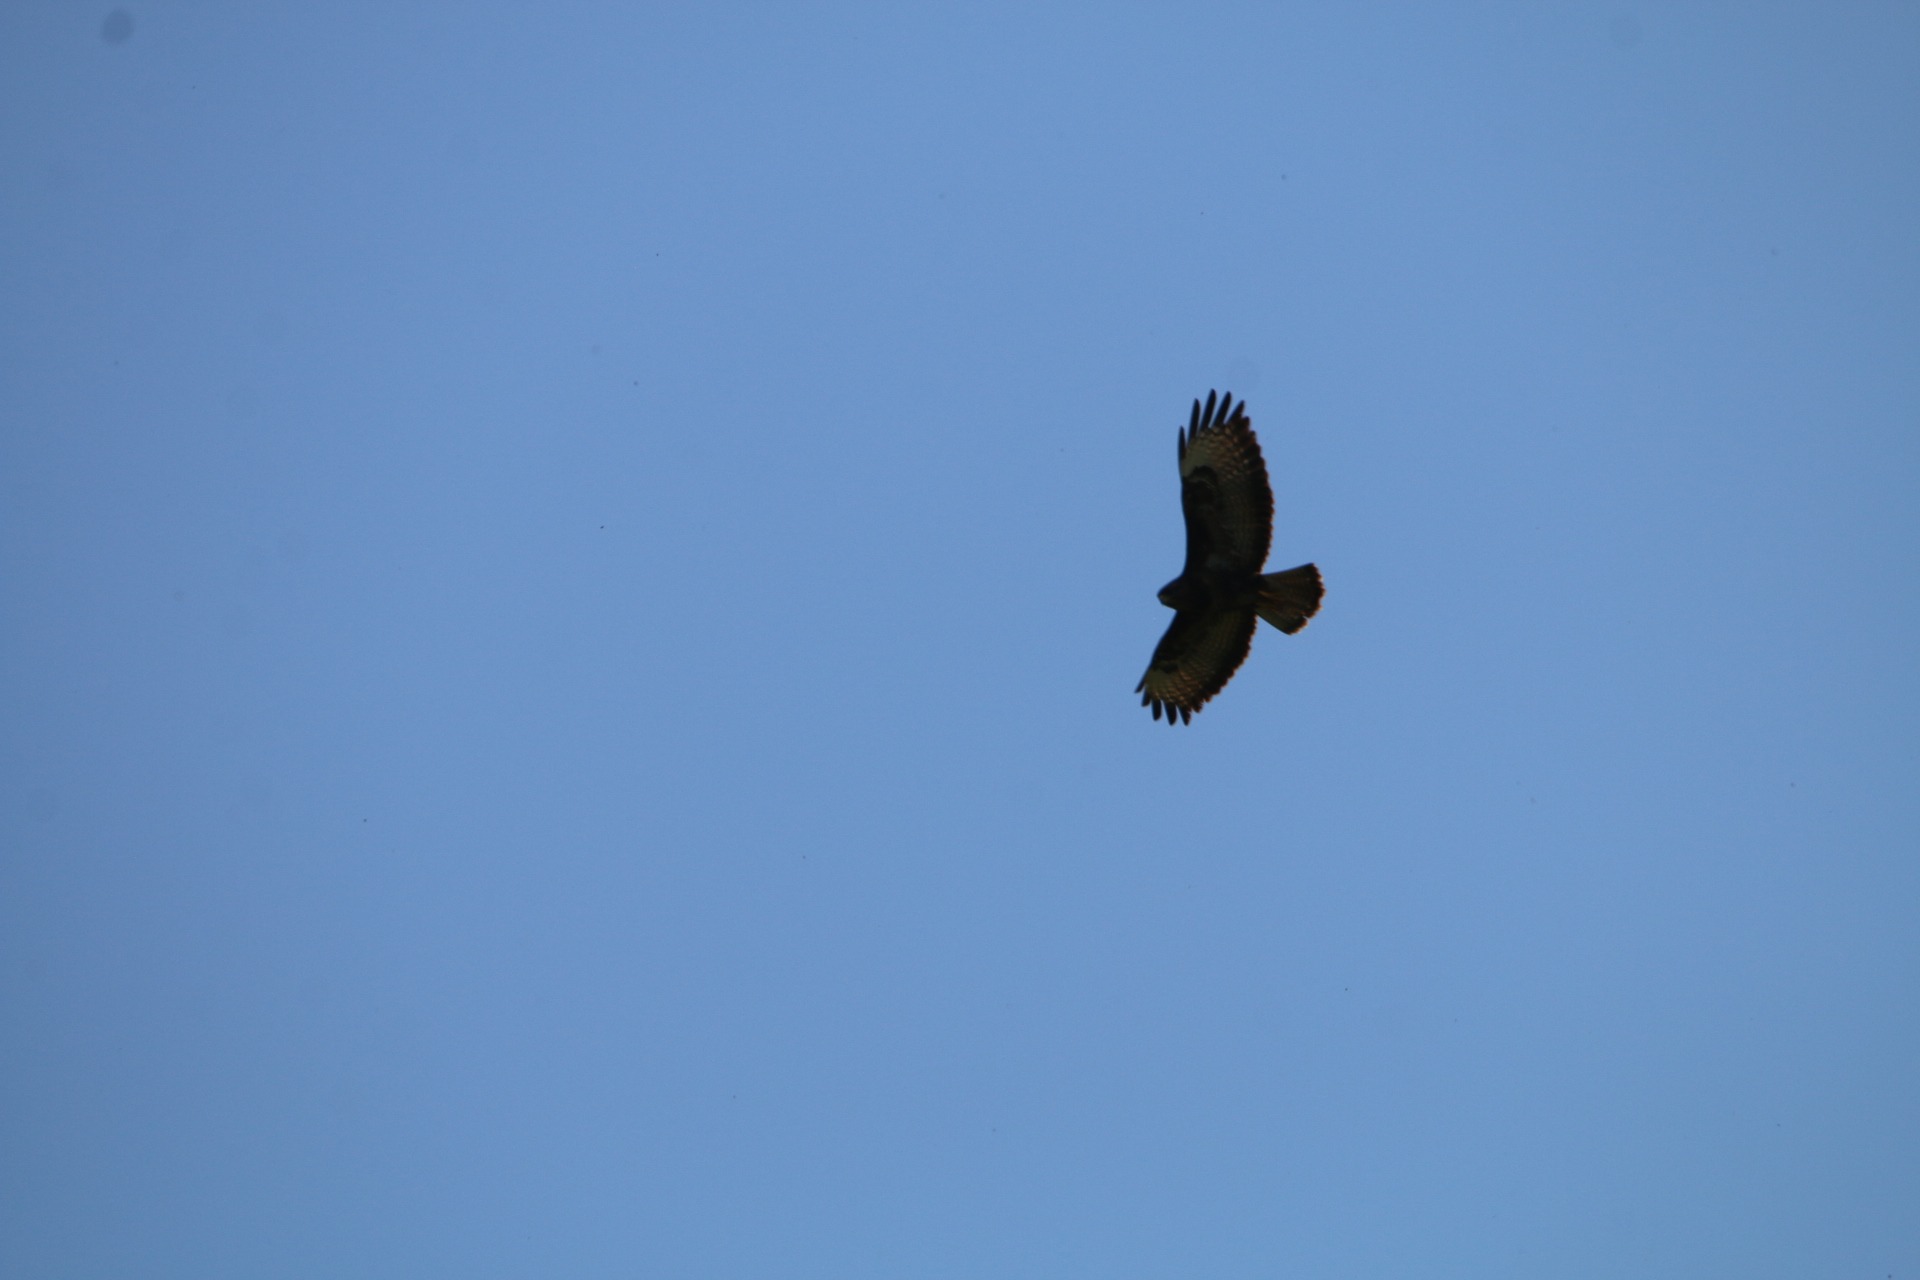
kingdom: Animalia
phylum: Chordata
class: Aves
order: Accipitriformes
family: Accipitridae
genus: Buteo
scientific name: Buteo buteo
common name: Musvåge
